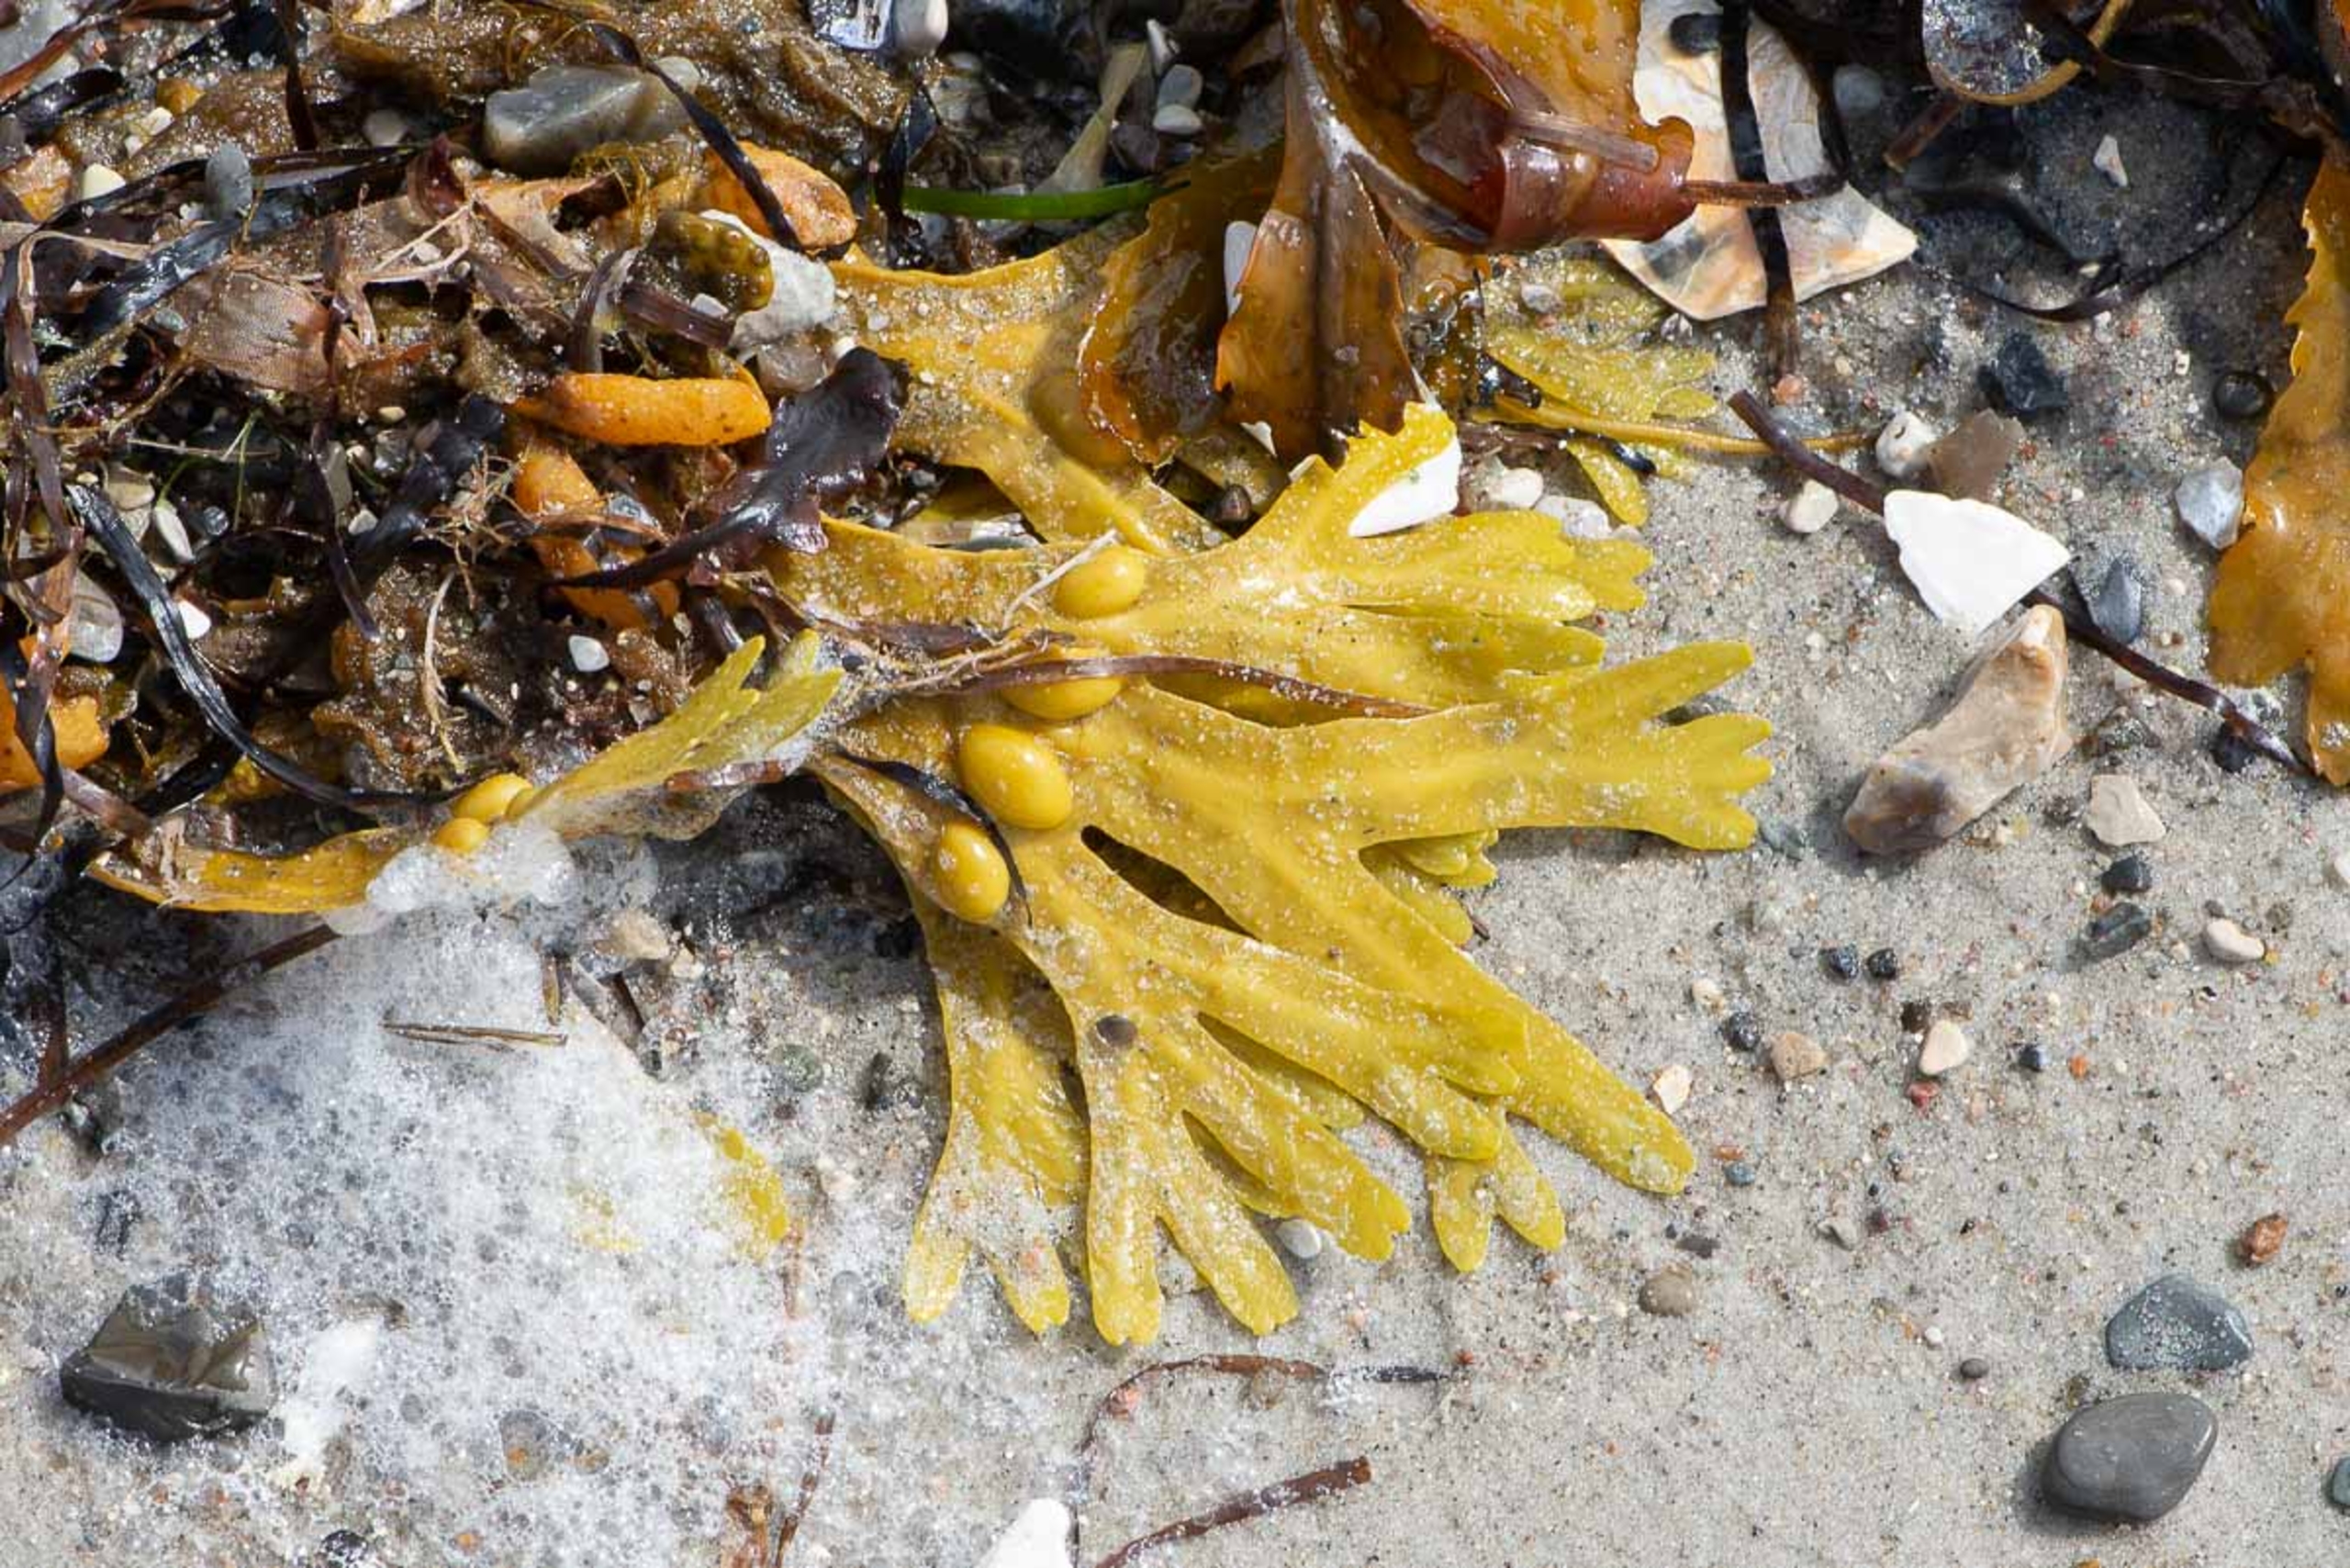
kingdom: Chromista
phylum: Ochrophyta
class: Phaeophyceae
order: Fucales
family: Fucaceae
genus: Fucus
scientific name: Fucus vesiculosus
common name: Blæretang
